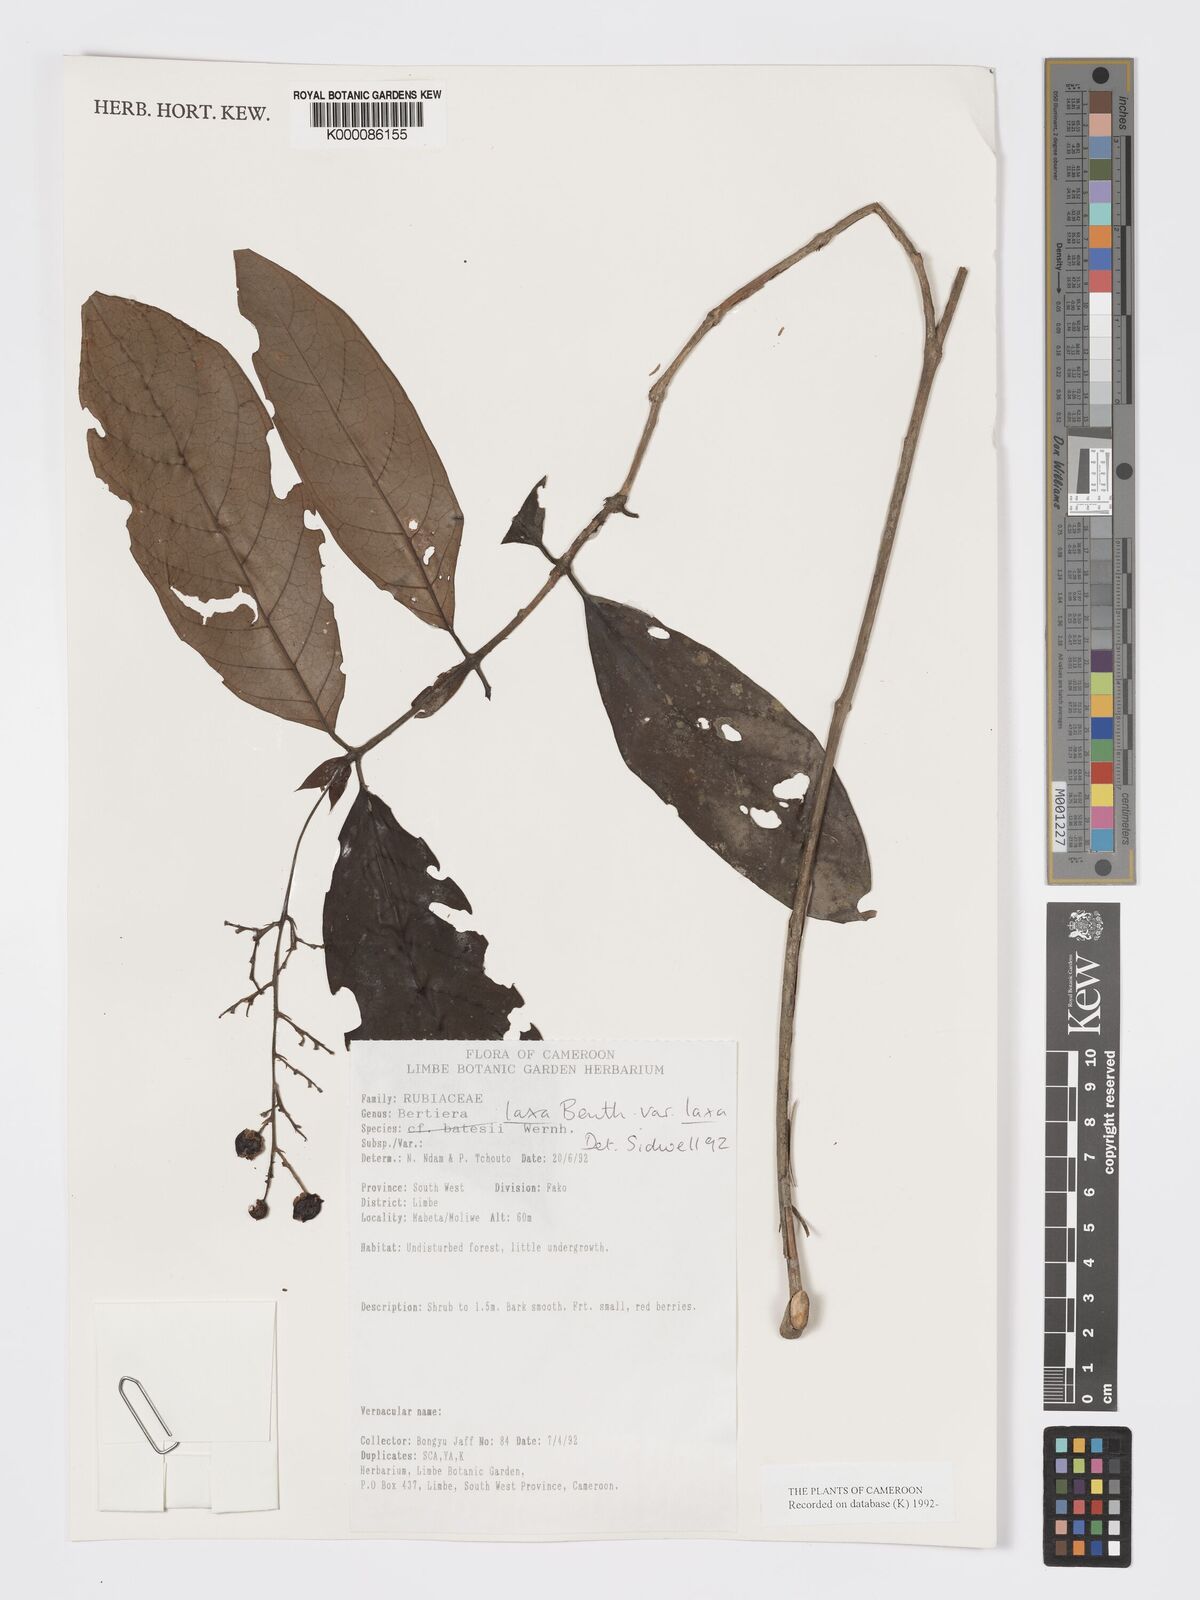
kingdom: Plantae
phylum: Tracheophyta
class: Magnoliopsida
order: Gentianales
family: Rubiaceae
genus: Bertiera
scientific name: Bertiera laxa
